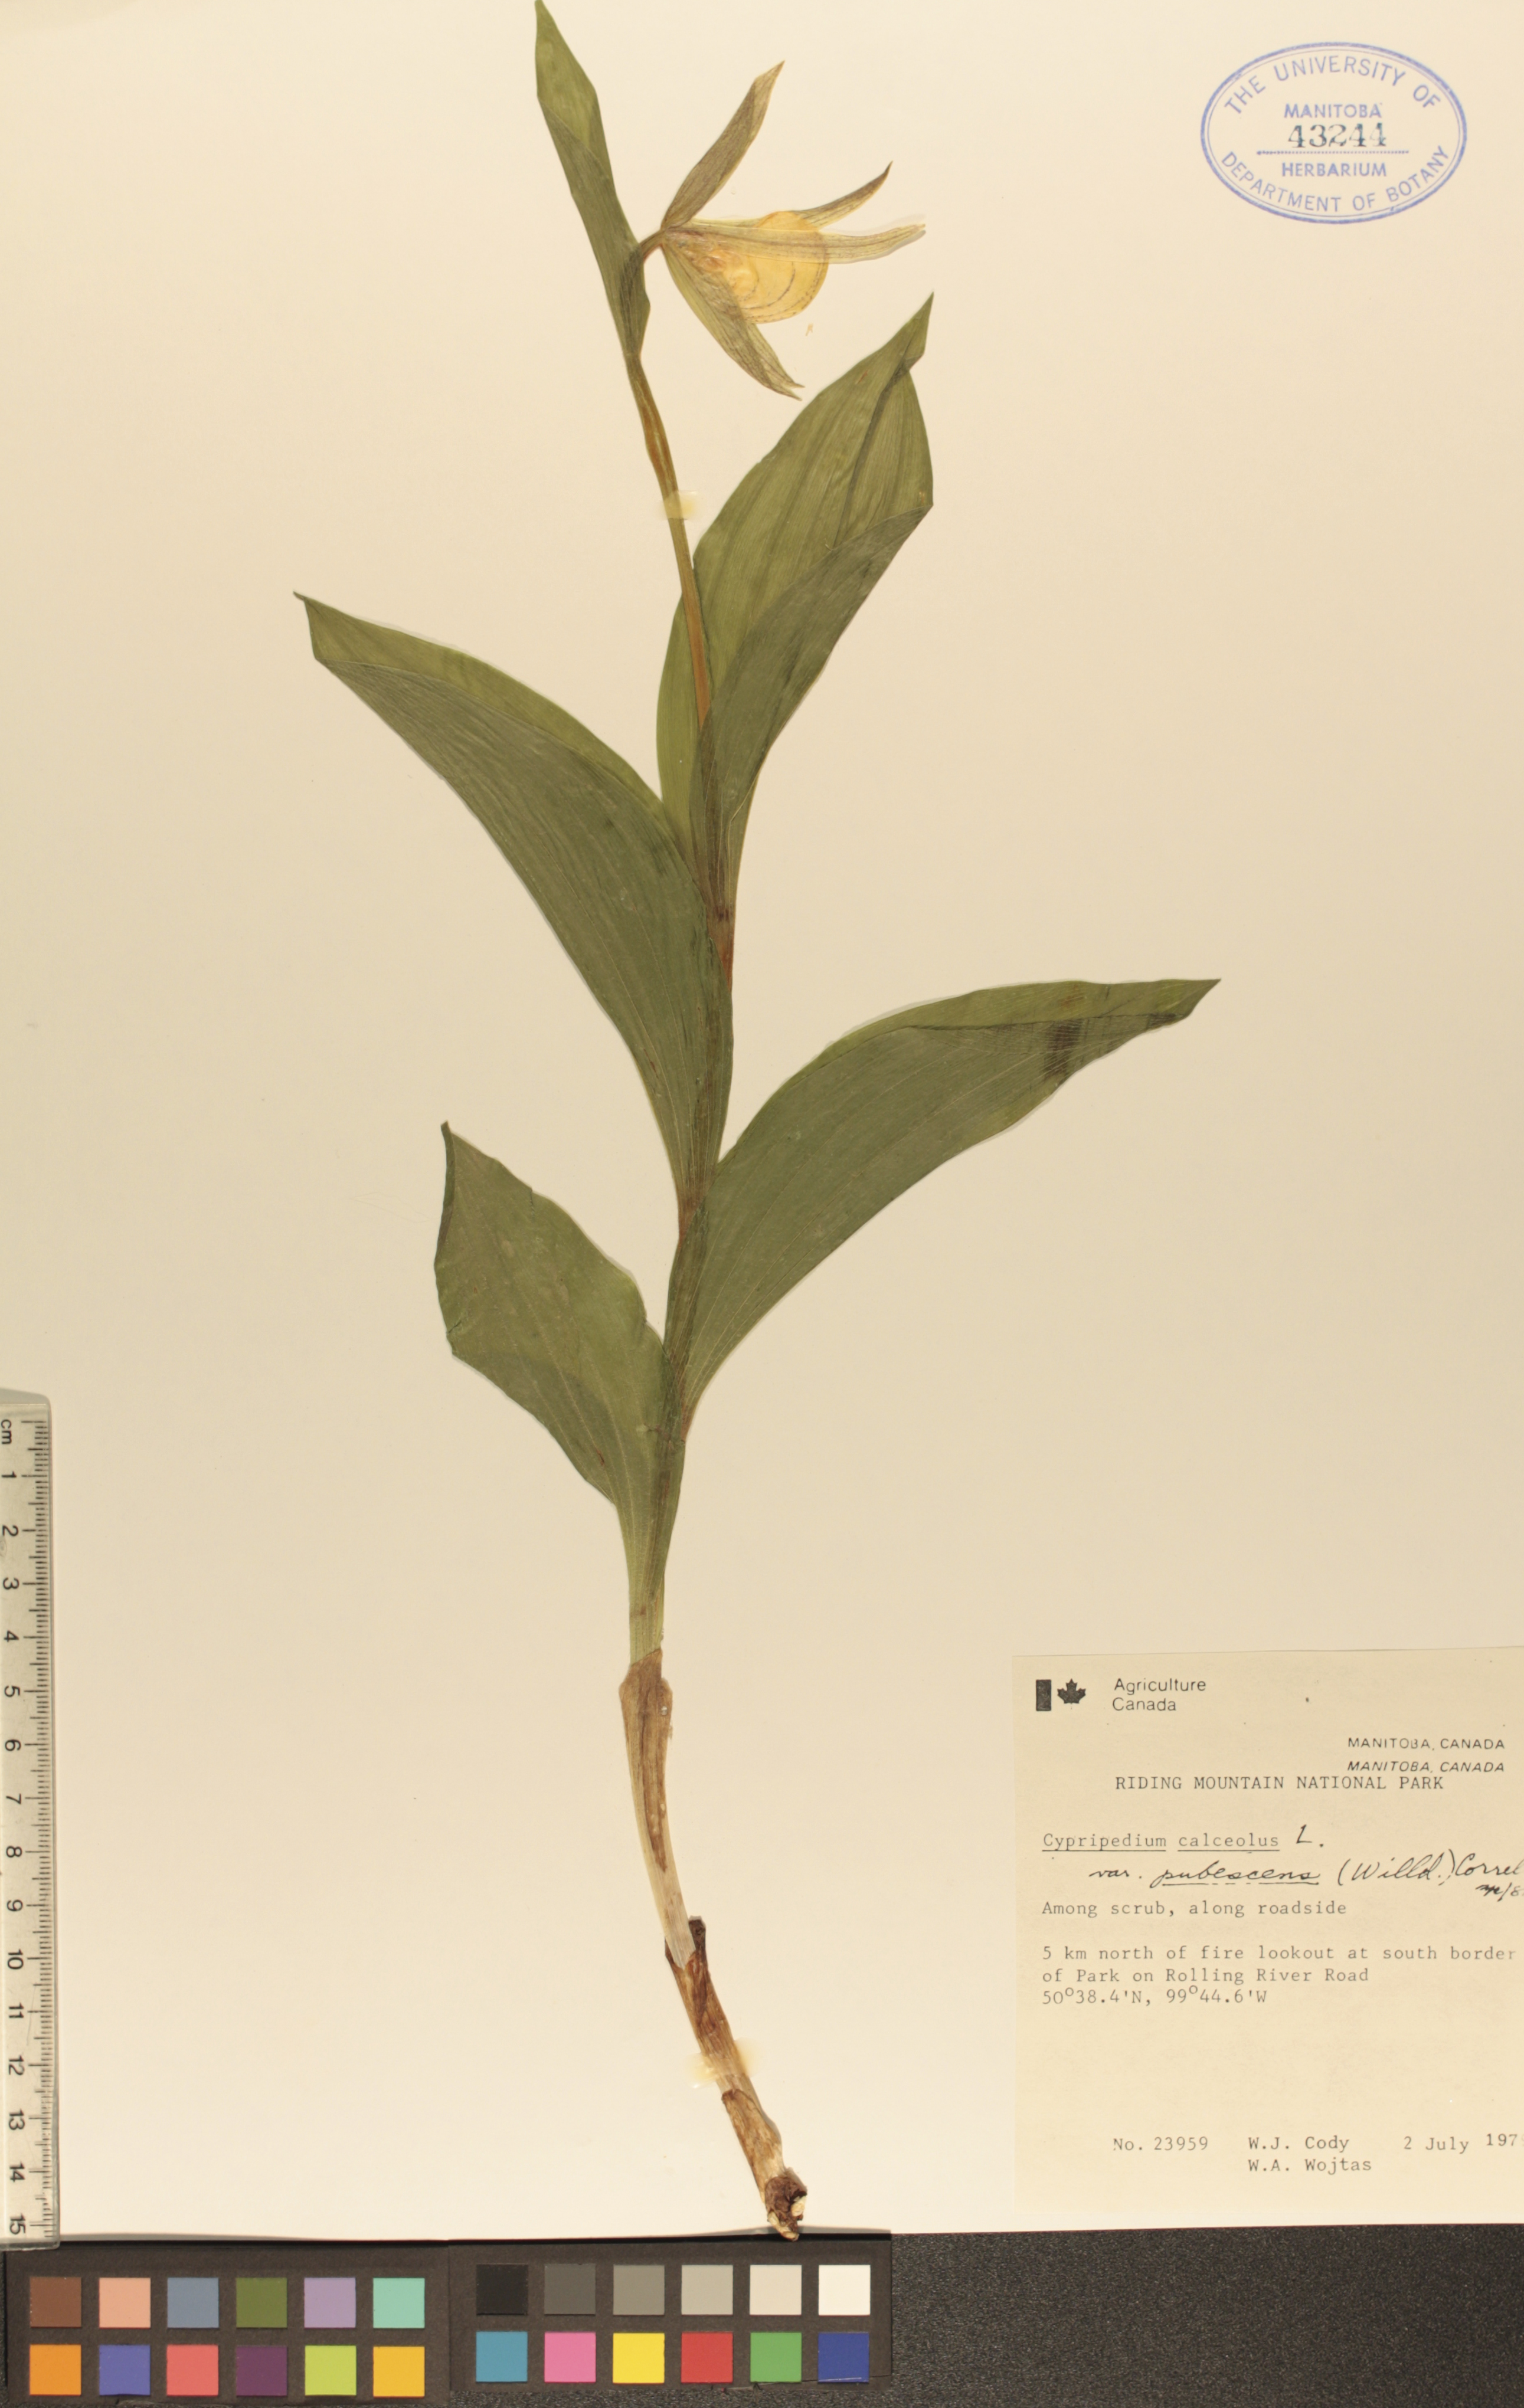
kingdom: Plantae
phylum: Tracheophyta
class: Liliopsida
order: Asparagales
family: Orchidaceae
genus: Cypripedium
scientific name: Cypripedium parviflorum
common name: American yellow lady's-slipper
